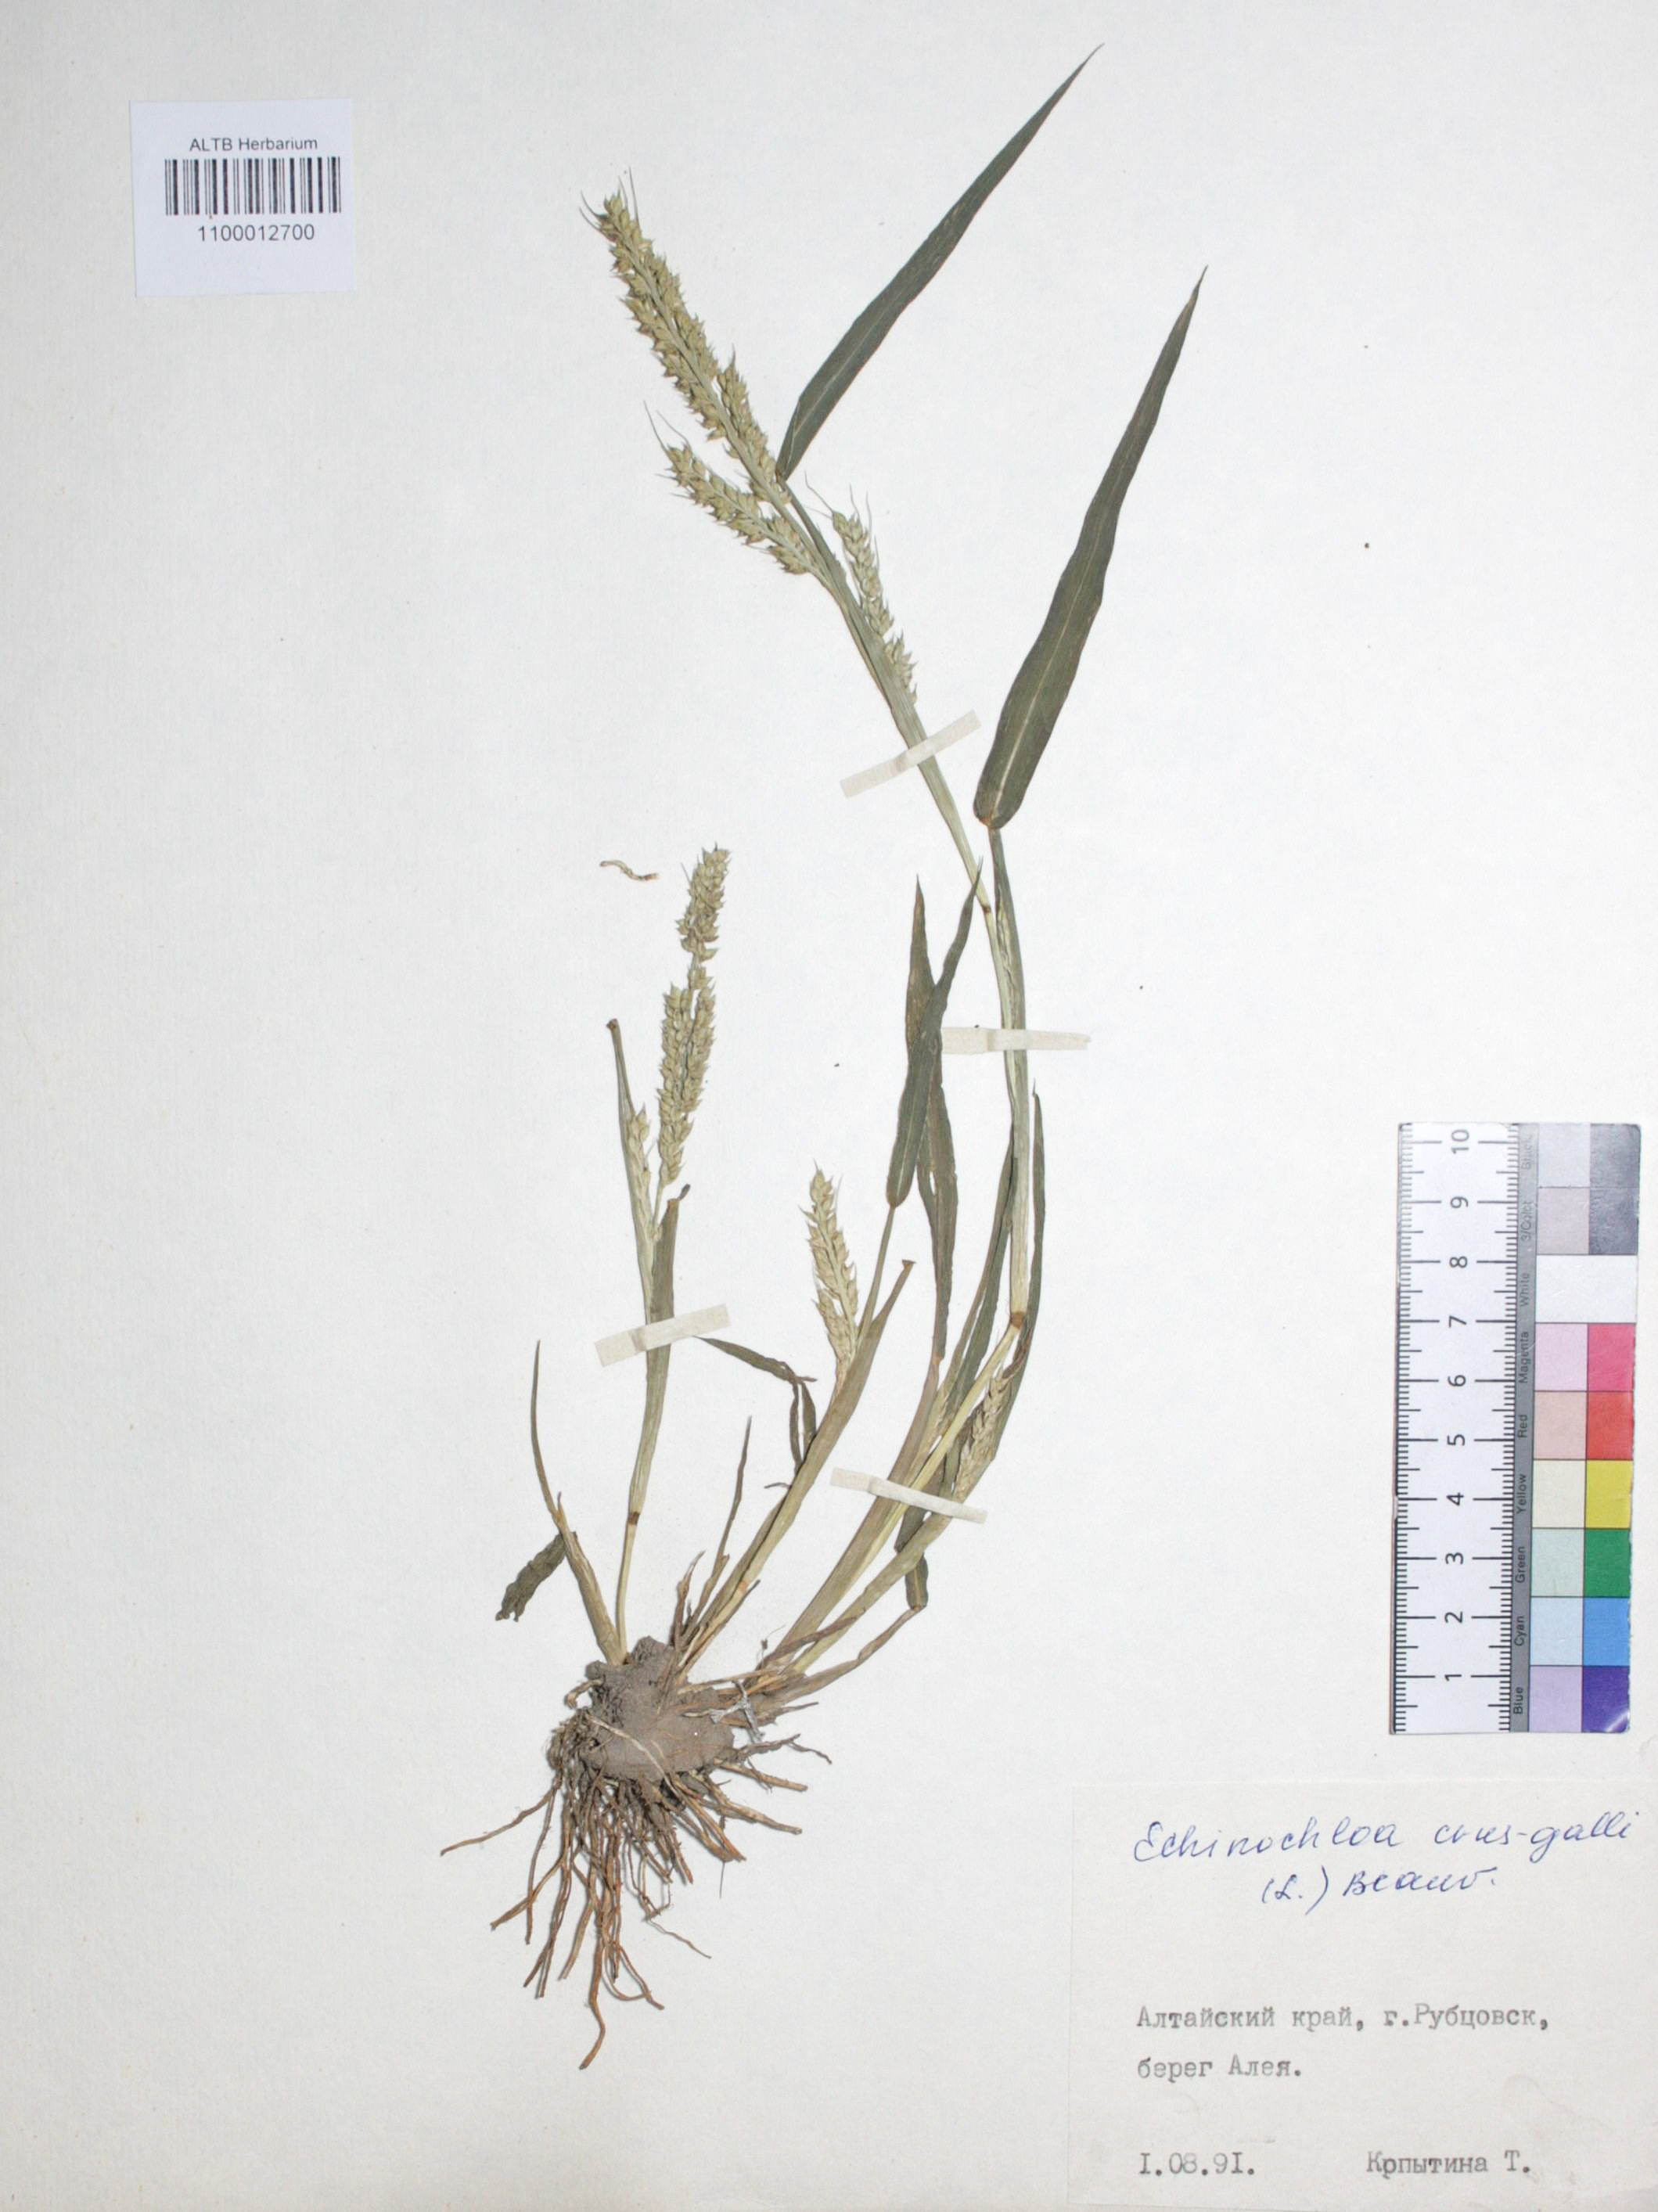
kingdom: Plantae
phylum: Tracheophyta
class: Liliopsida
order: Poales
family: Poaceae
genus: Echinochloa
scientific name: Echinochloa crus-galli
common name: Cockspur
